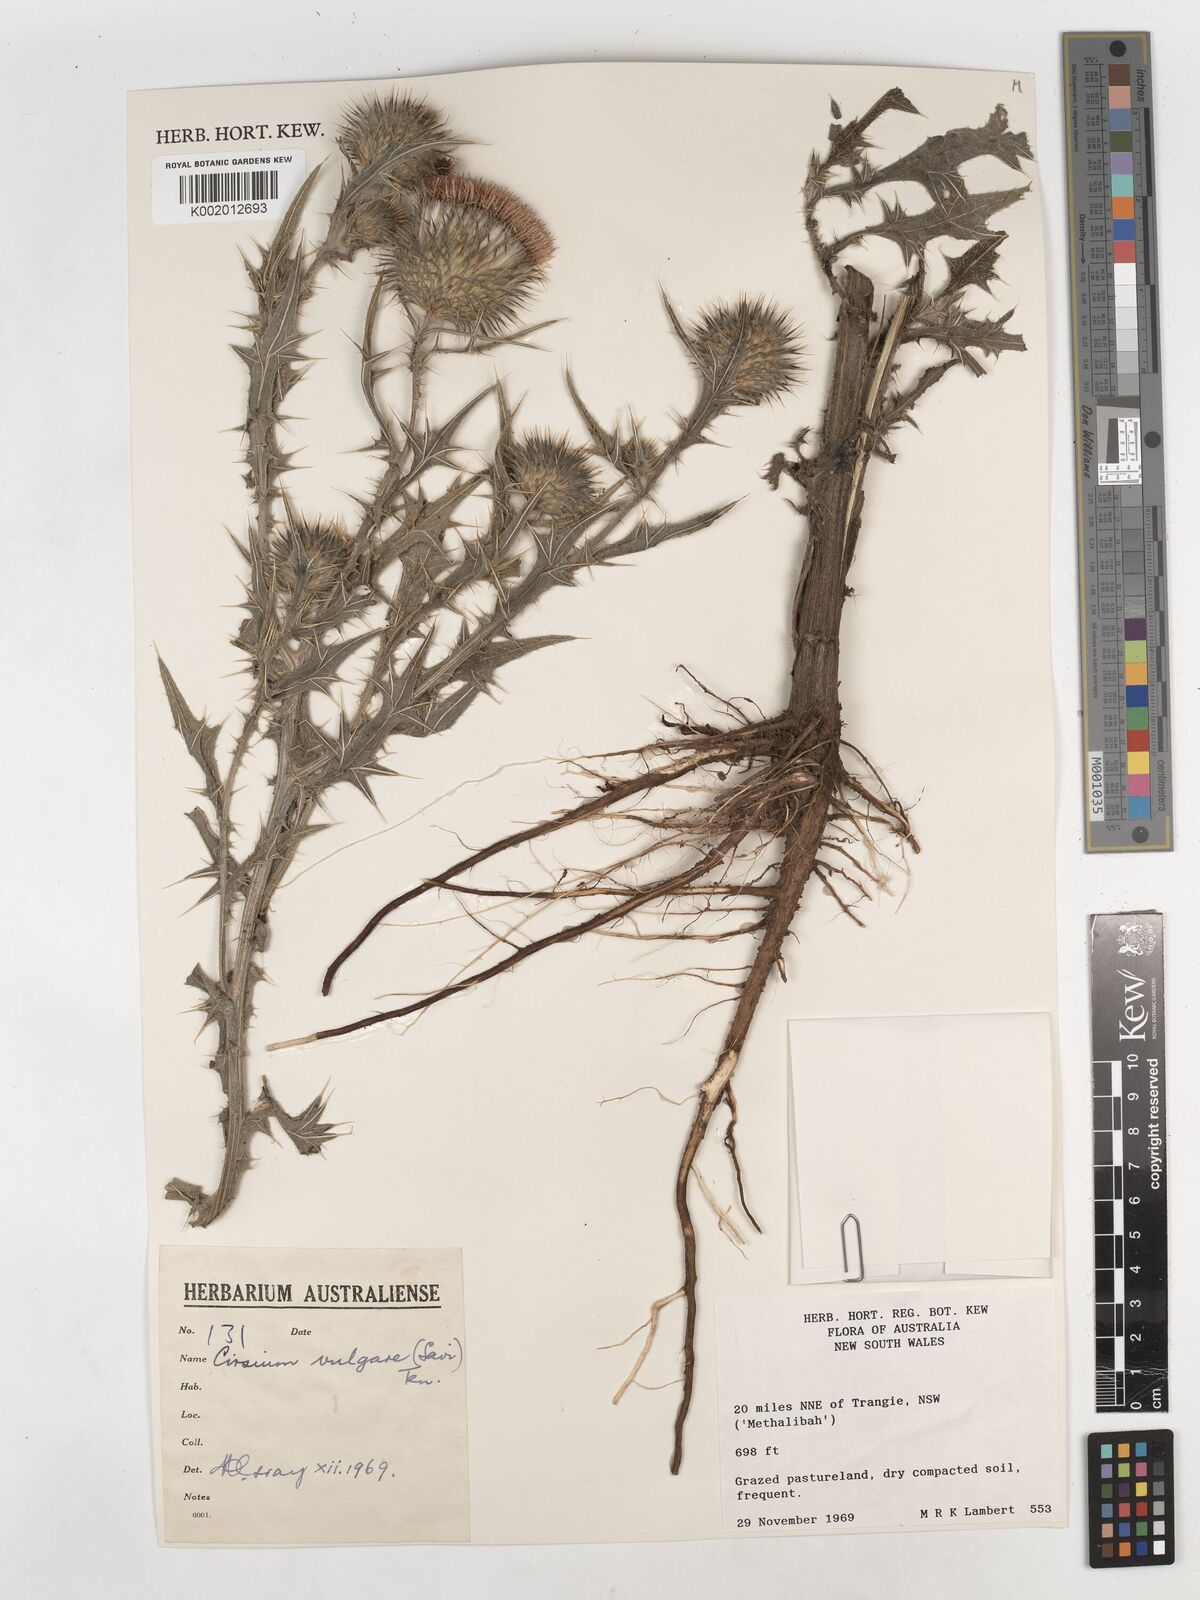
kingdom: Plantae
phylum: Tracheophyta
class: Magnoliopsida
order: Asterales
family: Asteraceae
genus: Cirsium
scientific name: Cirsium vulgare
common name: Bull thistle
